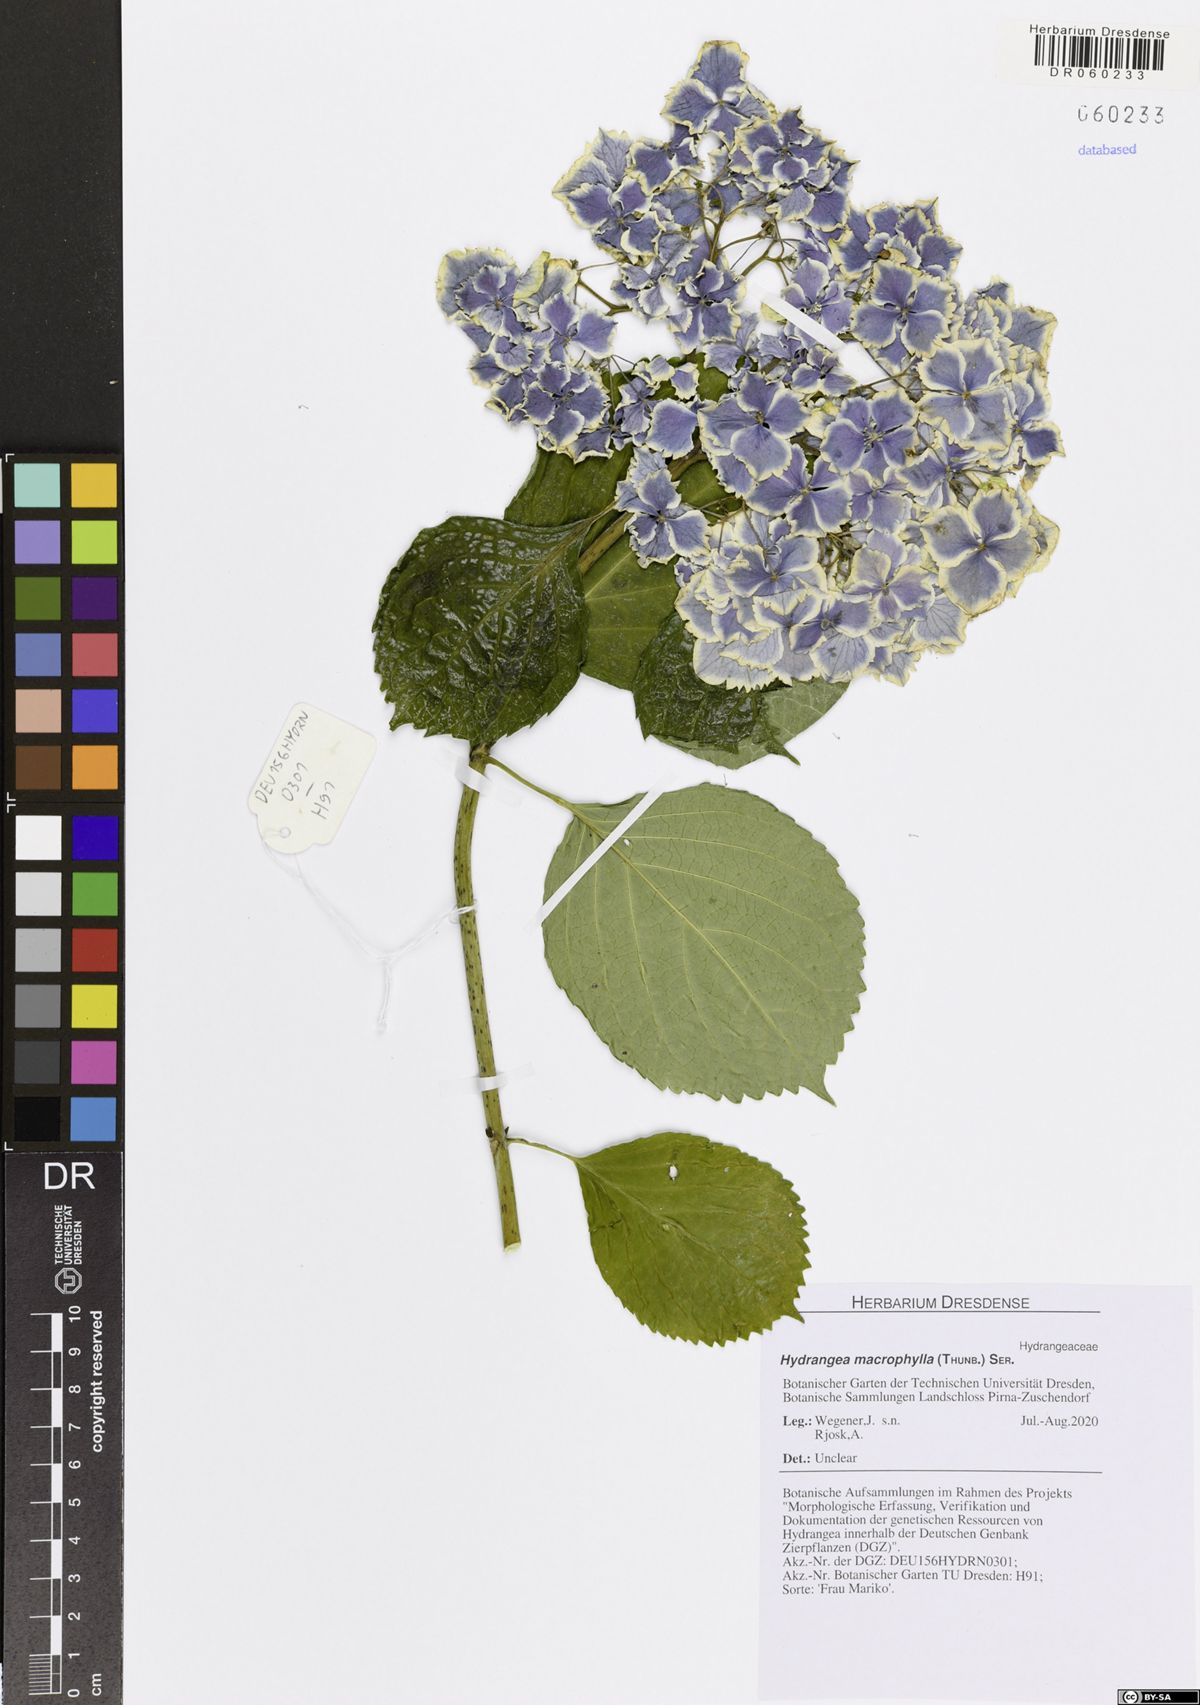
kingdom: Plantae
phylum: Tracheophyta
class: Magnoliopsida
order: Cornales
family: Hydrangeaceae
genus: Hydrangea
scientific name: Hydrangea macrophylla
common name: Hydrangea
